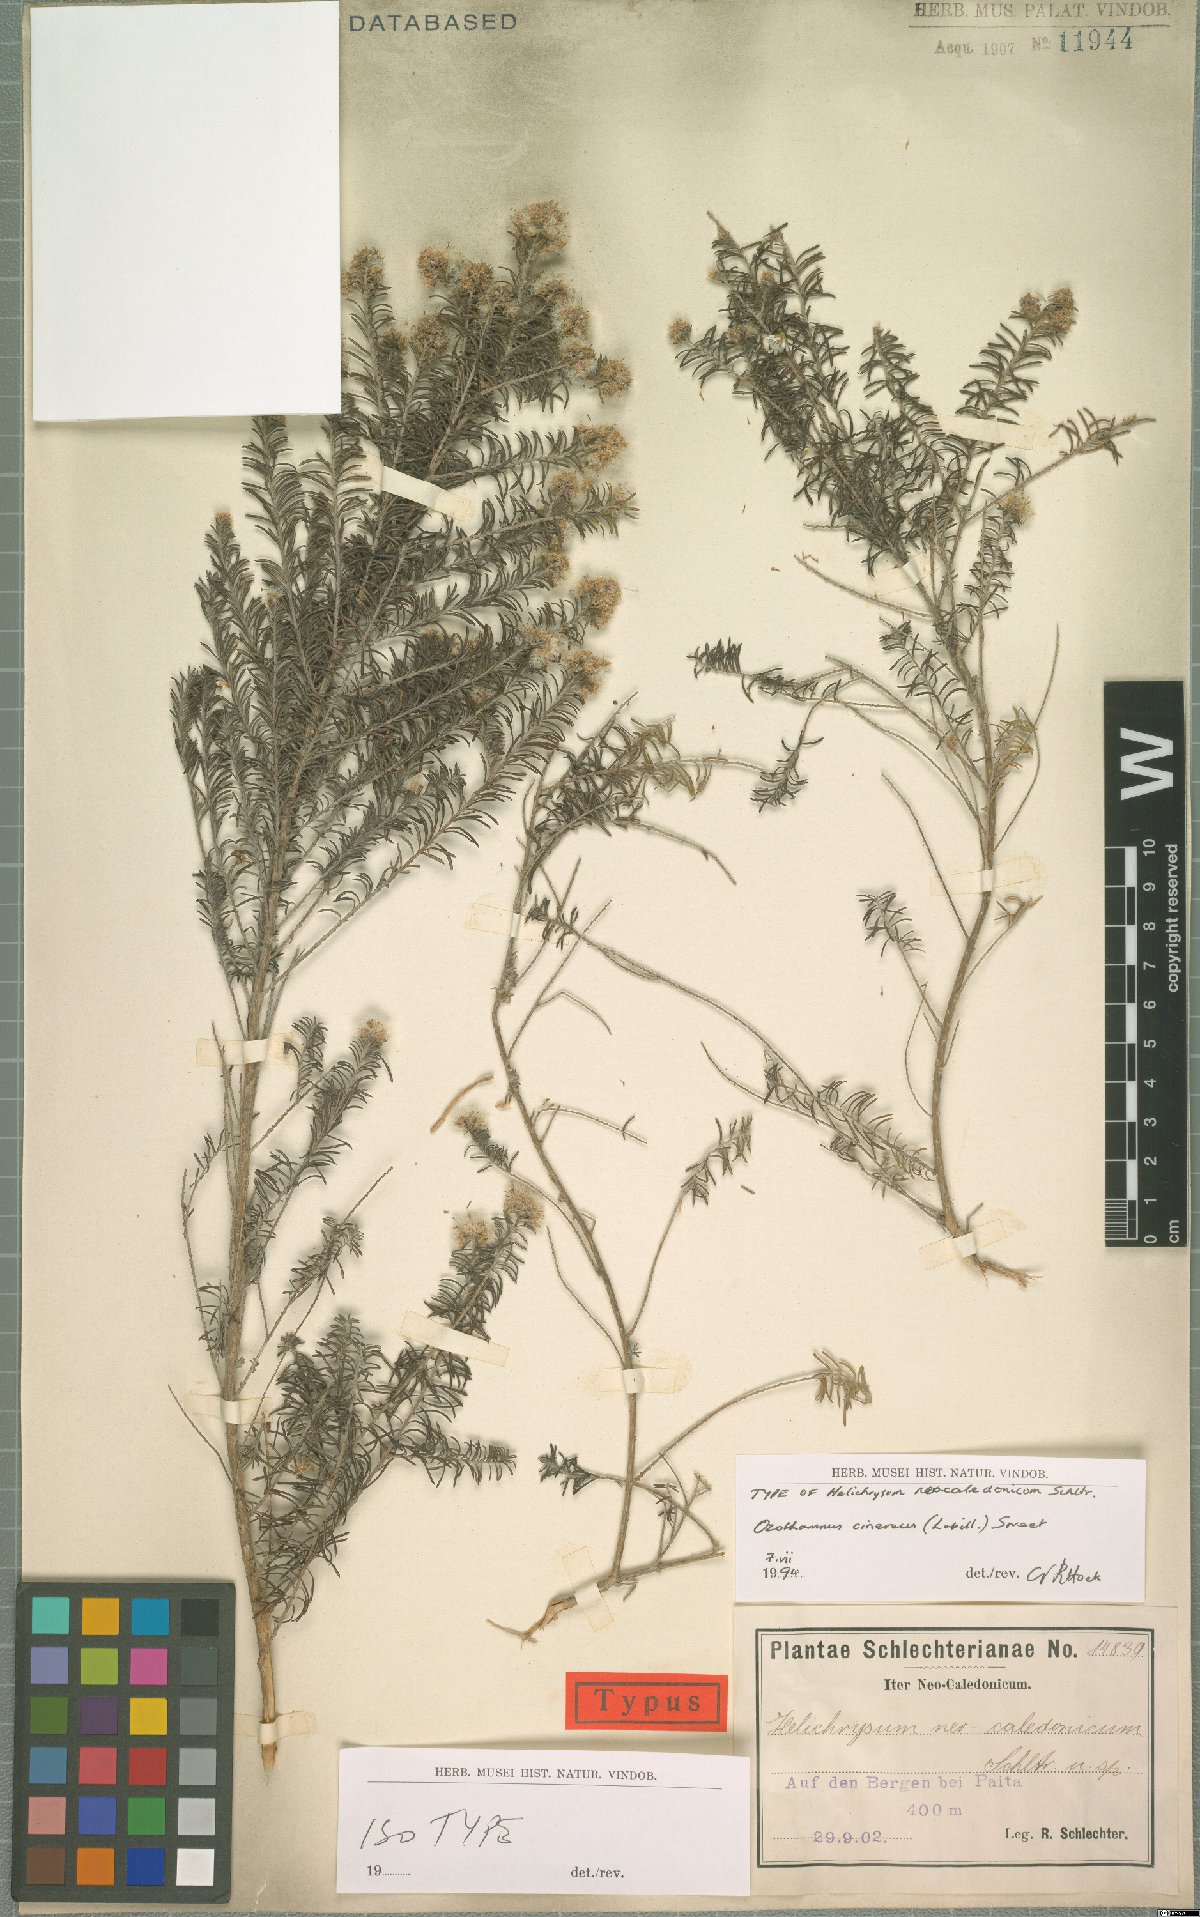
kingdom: Plantae
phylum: Tracheophyta
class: Magnoliopsida
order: Asterales
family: Asteraceae
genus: Ozothamnus
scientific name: Ozothamnus cinereus
